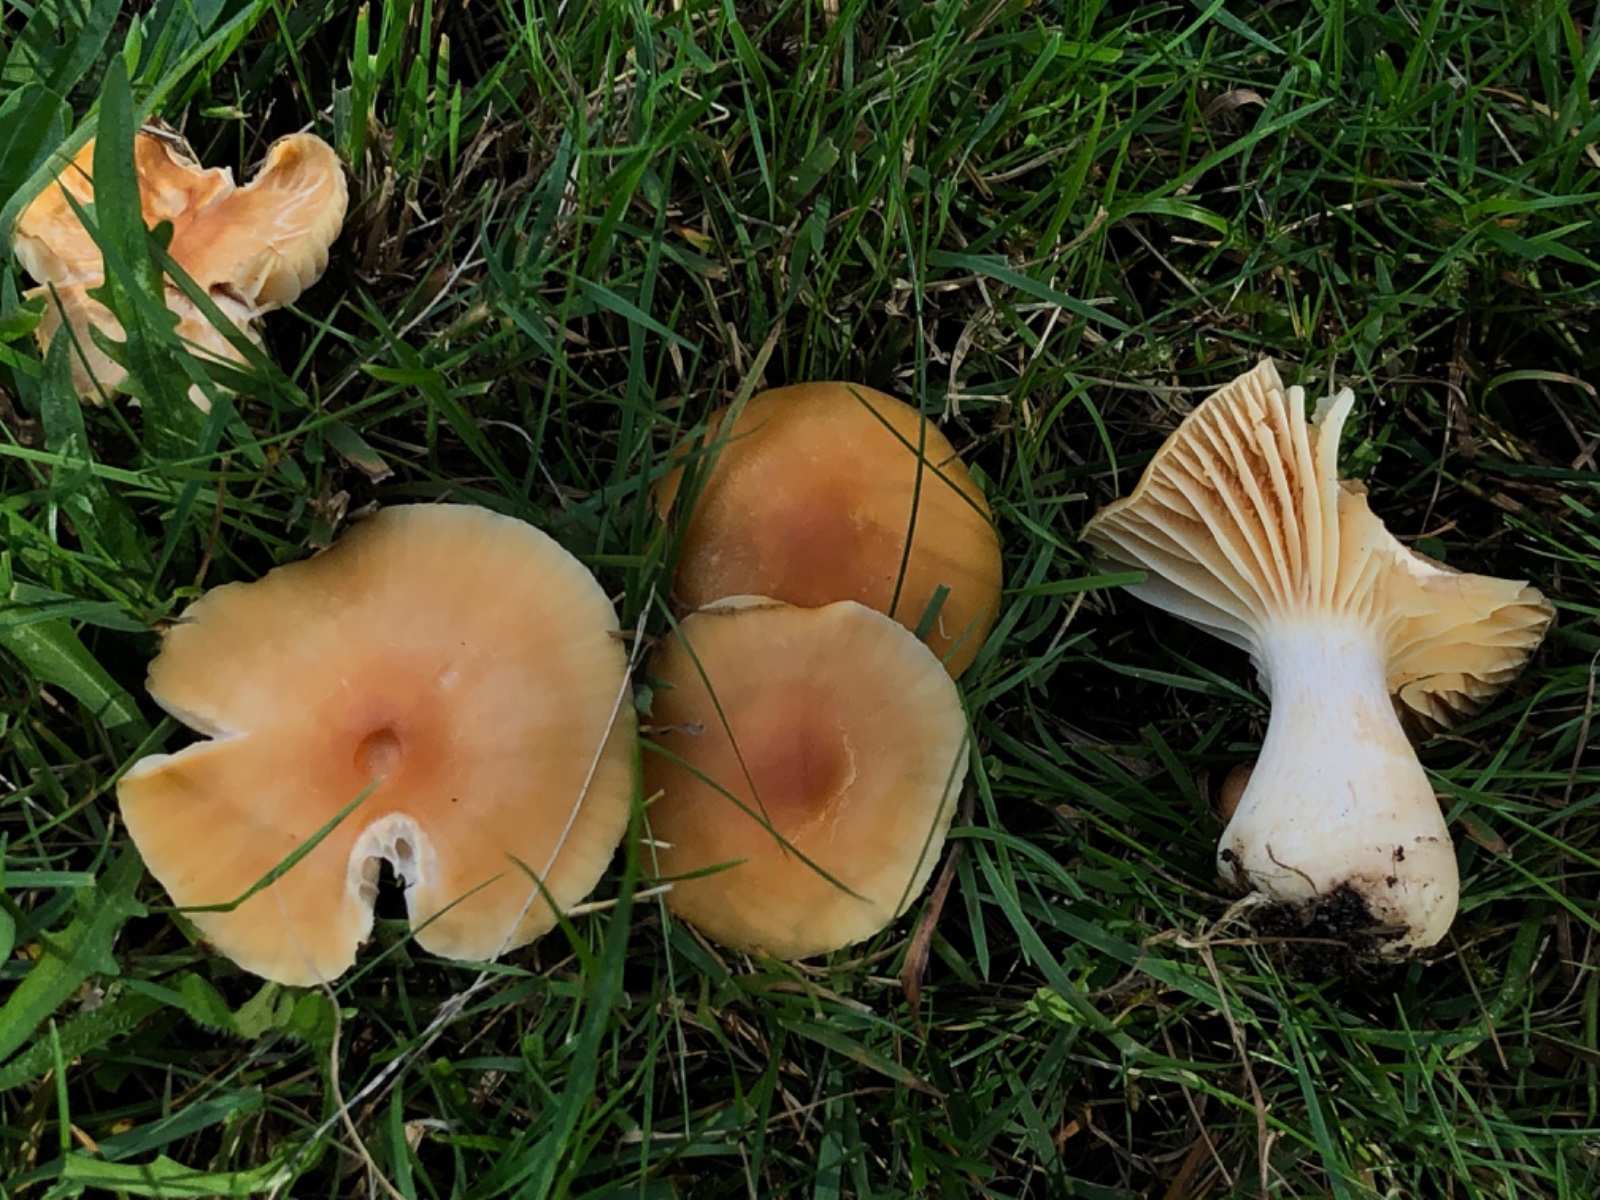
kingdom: Fungi
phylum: Basidiomycota
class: Agaricomycetes
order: Agaricales
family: Hygrophoraceae
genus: Cuphophyllus
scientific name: Cuphophyllus pratensis
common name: eng-vokshat
